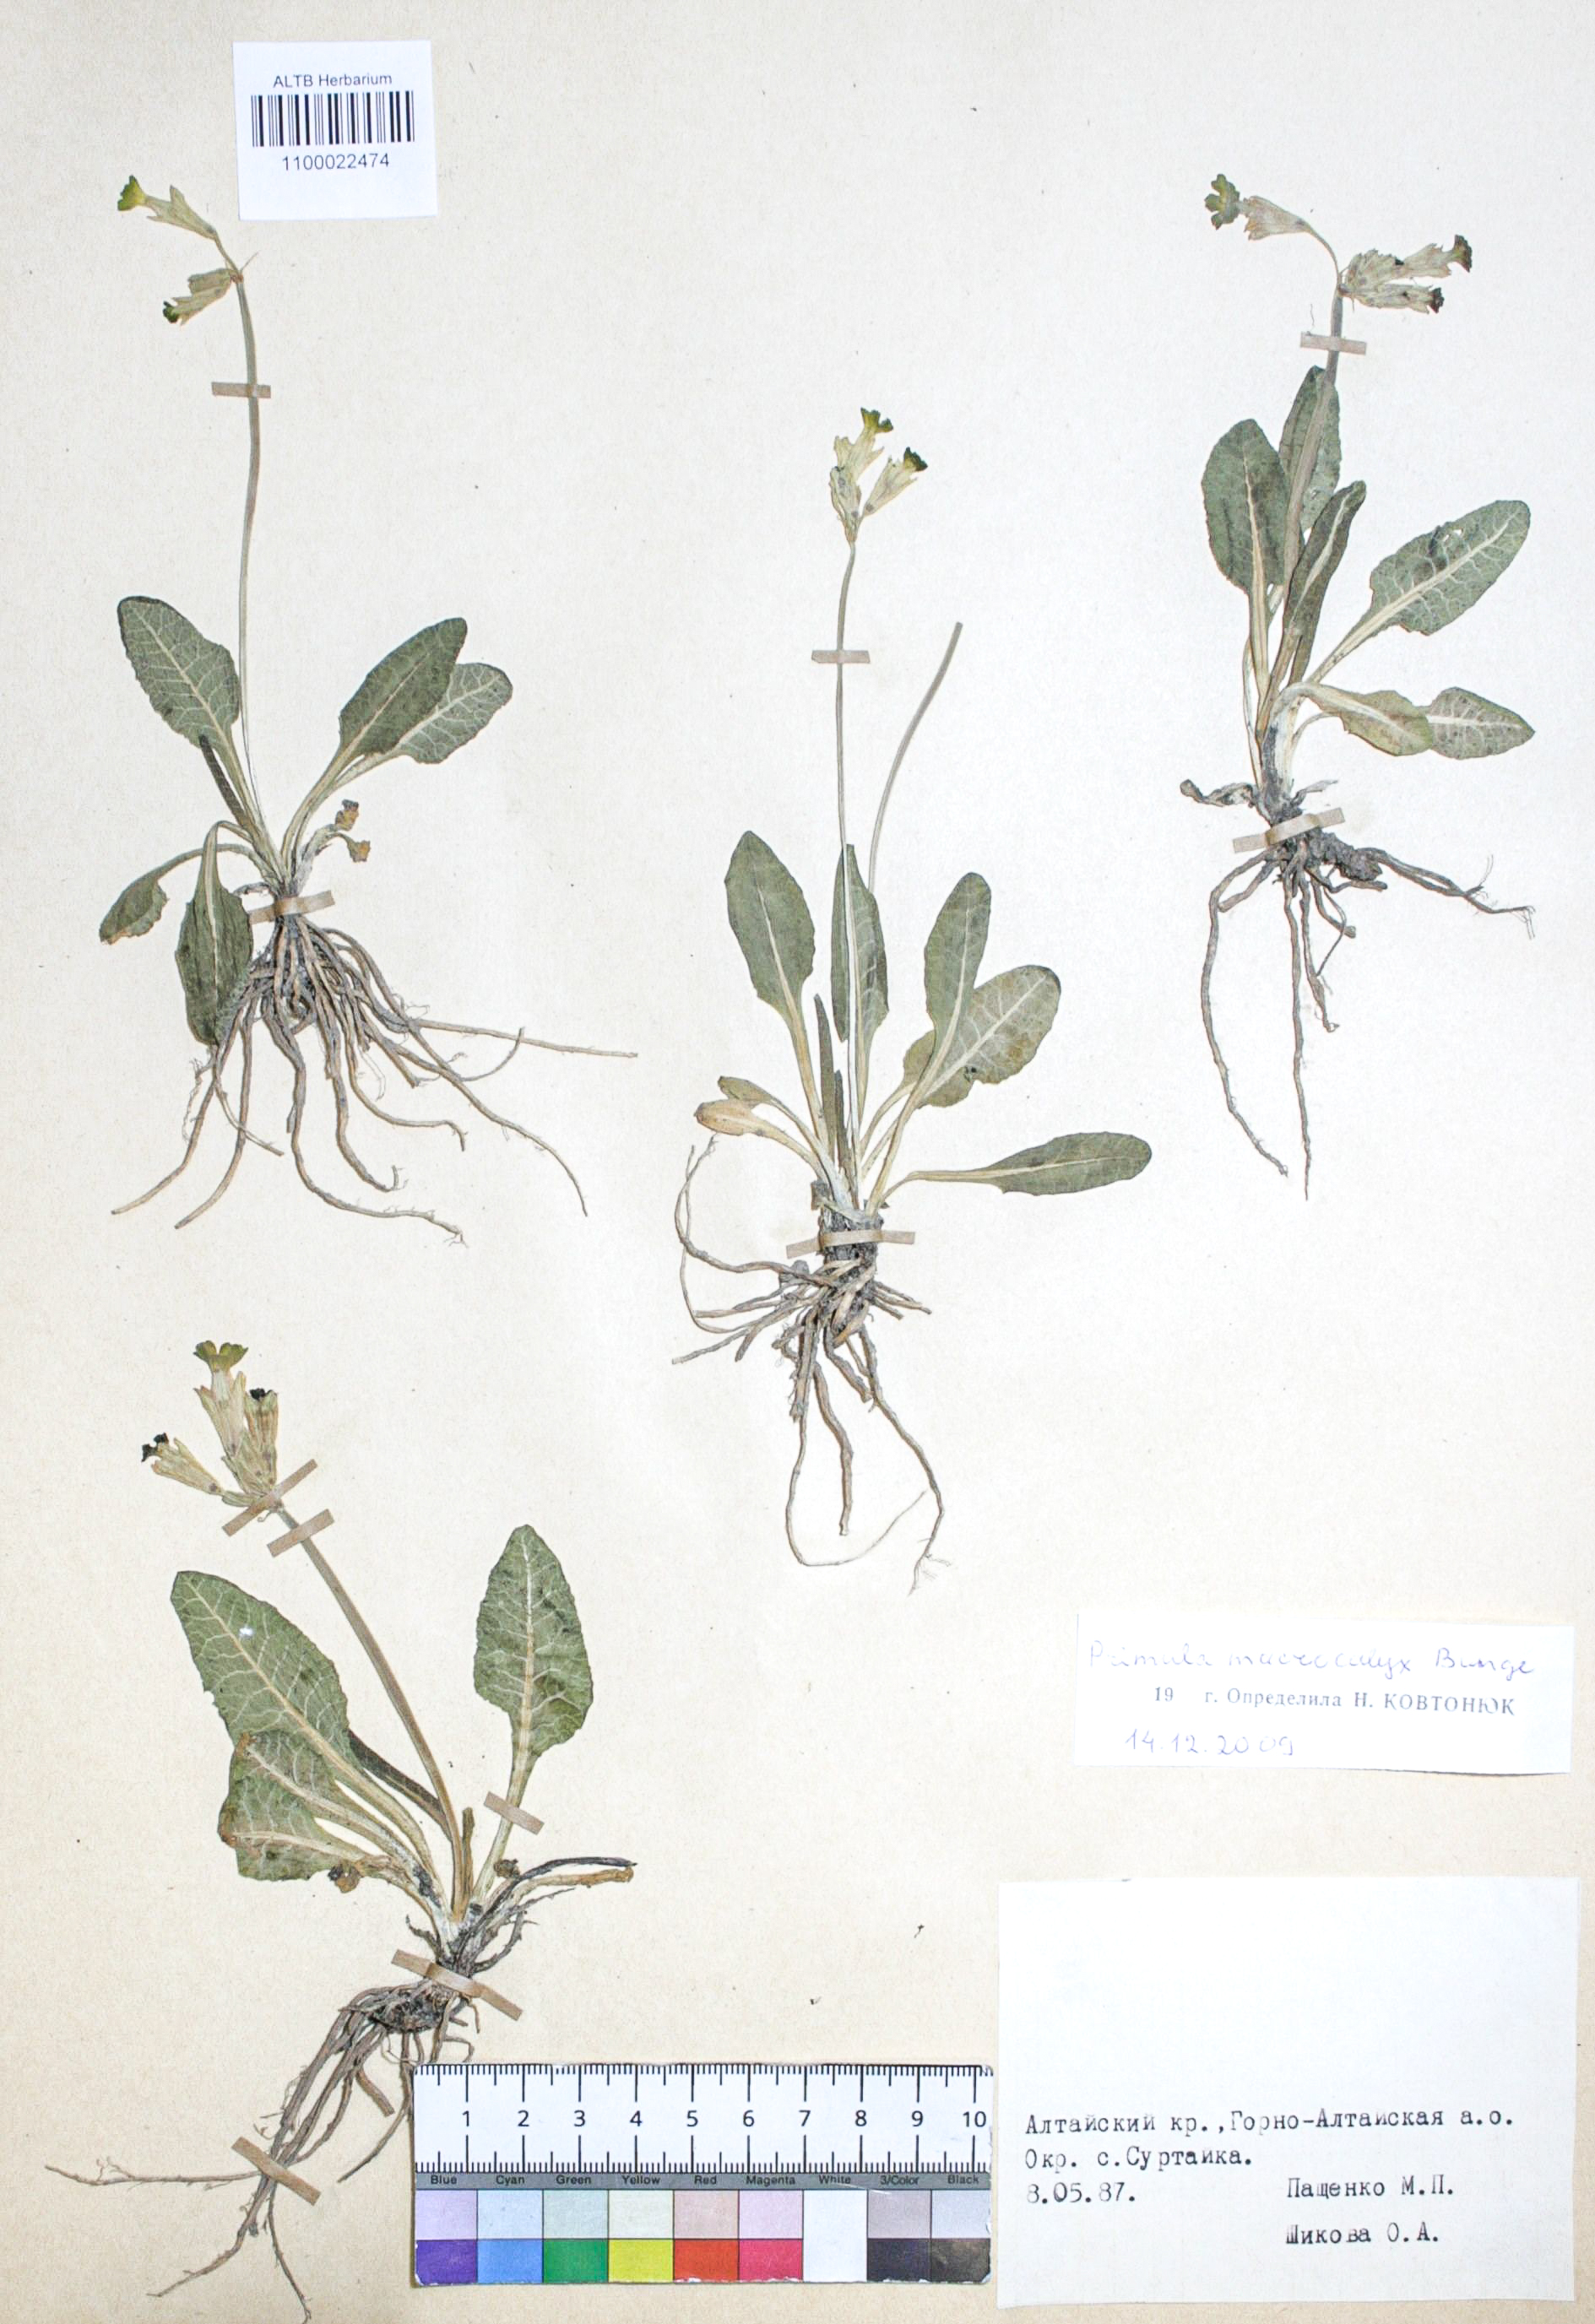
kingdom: Plantae
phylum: Tracheophyta
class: Magnoliopsida
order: Ericales
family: Primulaceae
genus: Primula
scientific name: Primula veris
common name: Cowslip
